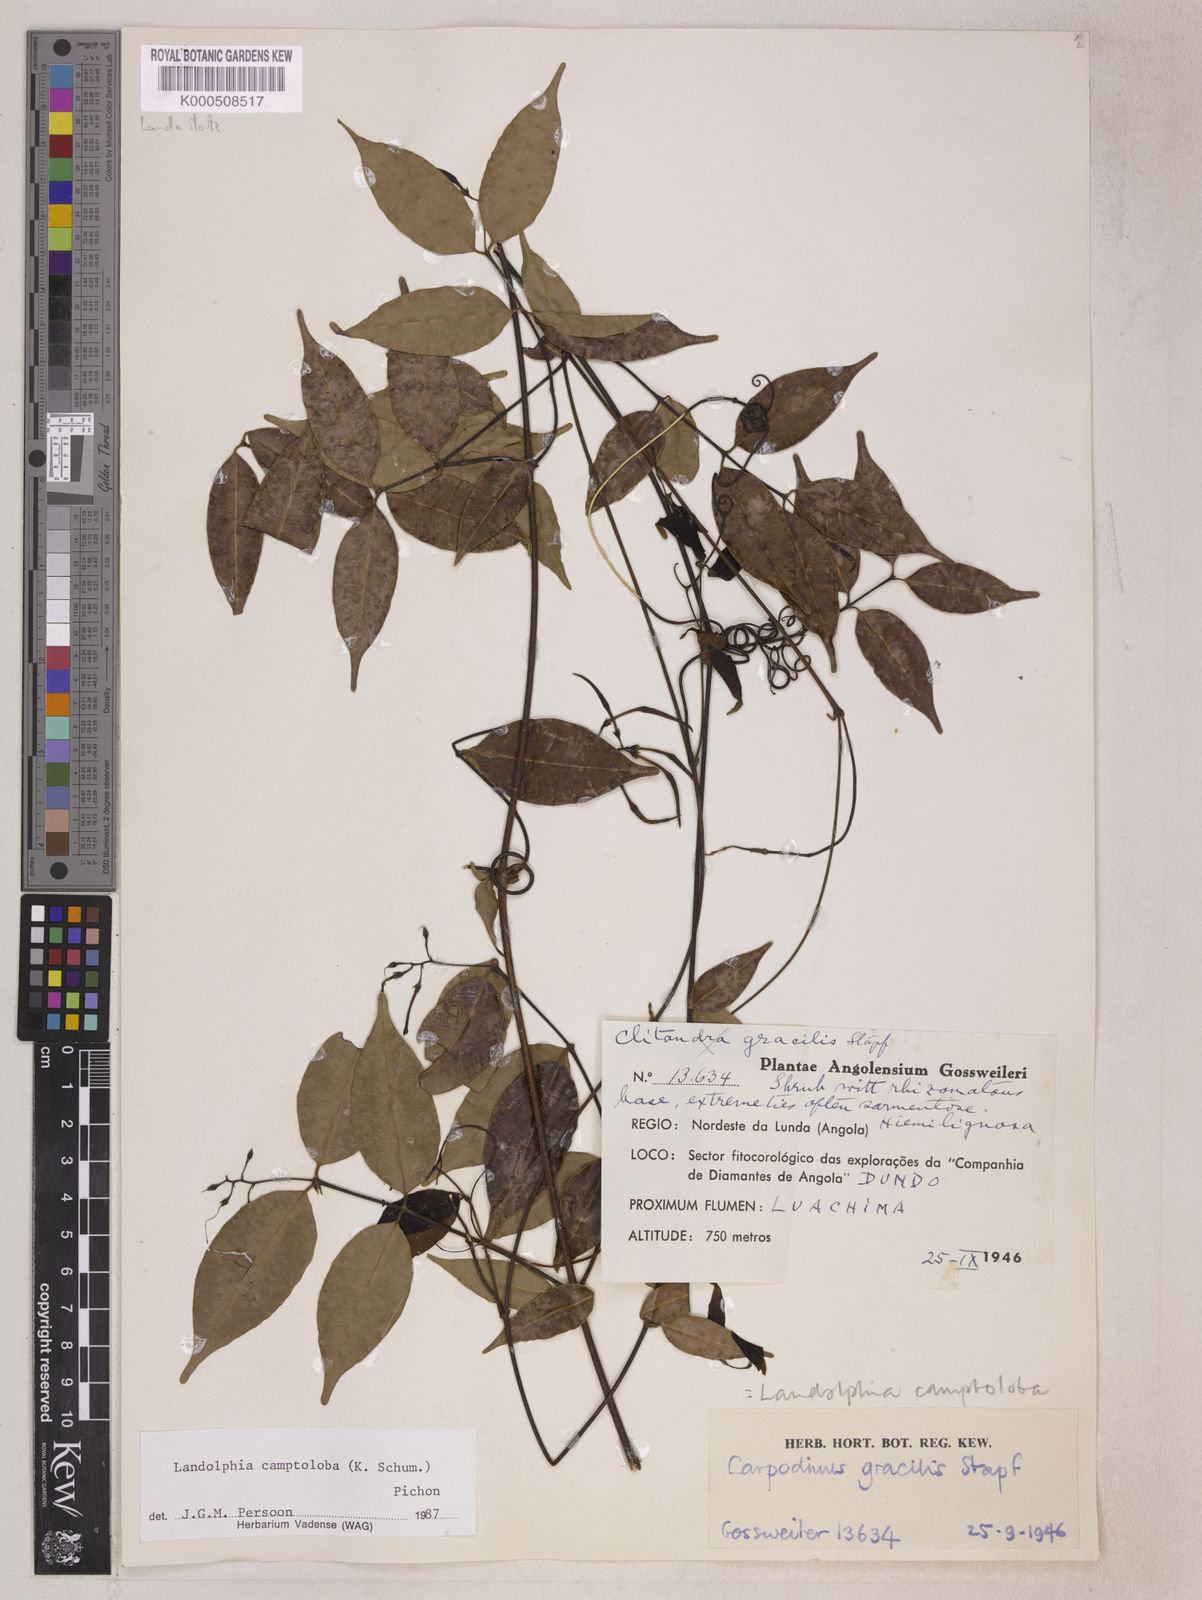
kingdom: Plantae
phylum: Tracheophyta
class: Magnoliopsida
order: Gentianales
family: Apocynaceae
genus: Landolphia
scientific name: Landolphia camptoloba
